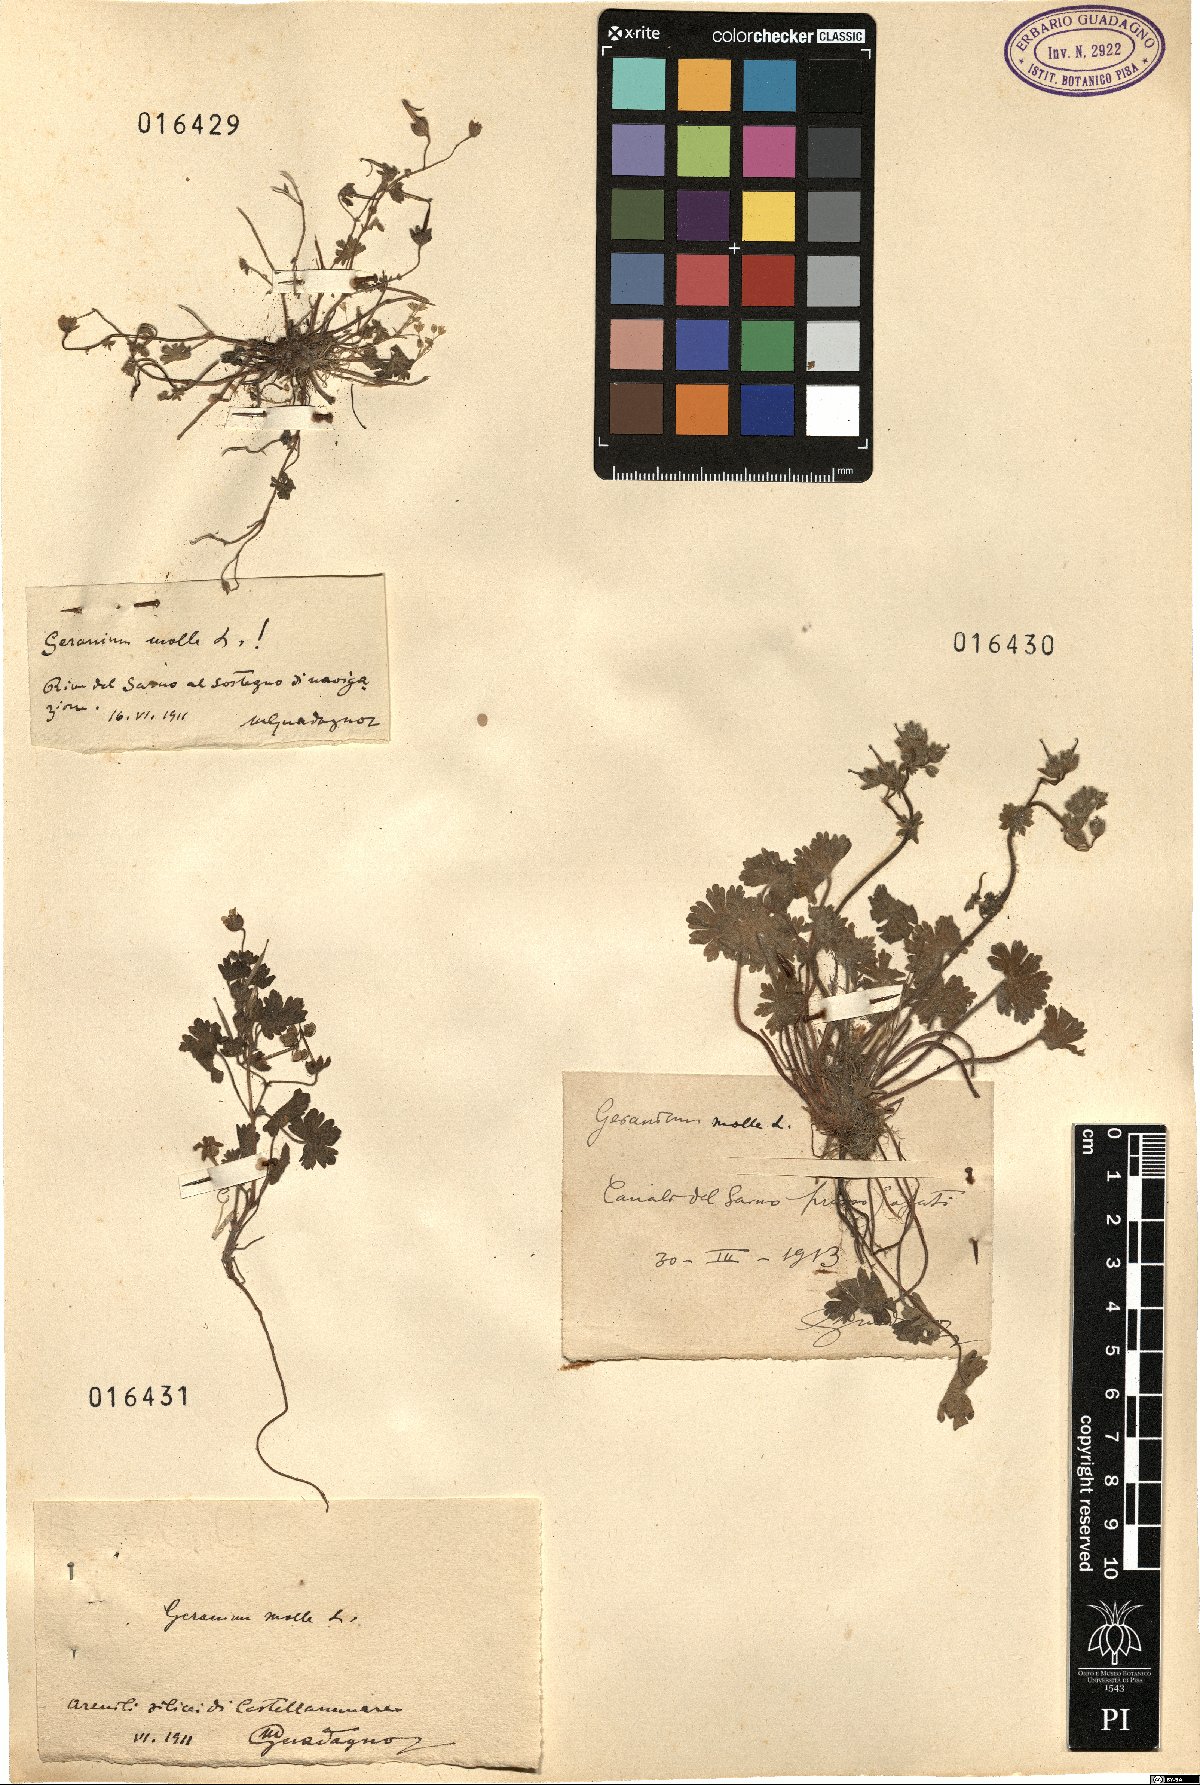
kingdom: Plantae
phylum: Tracheophyta
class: Magnoliopsida
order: Geraniales
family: Geraniaceae
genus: Geranium
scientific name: Geranium molle
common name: Dove's-foot crane's-bill
